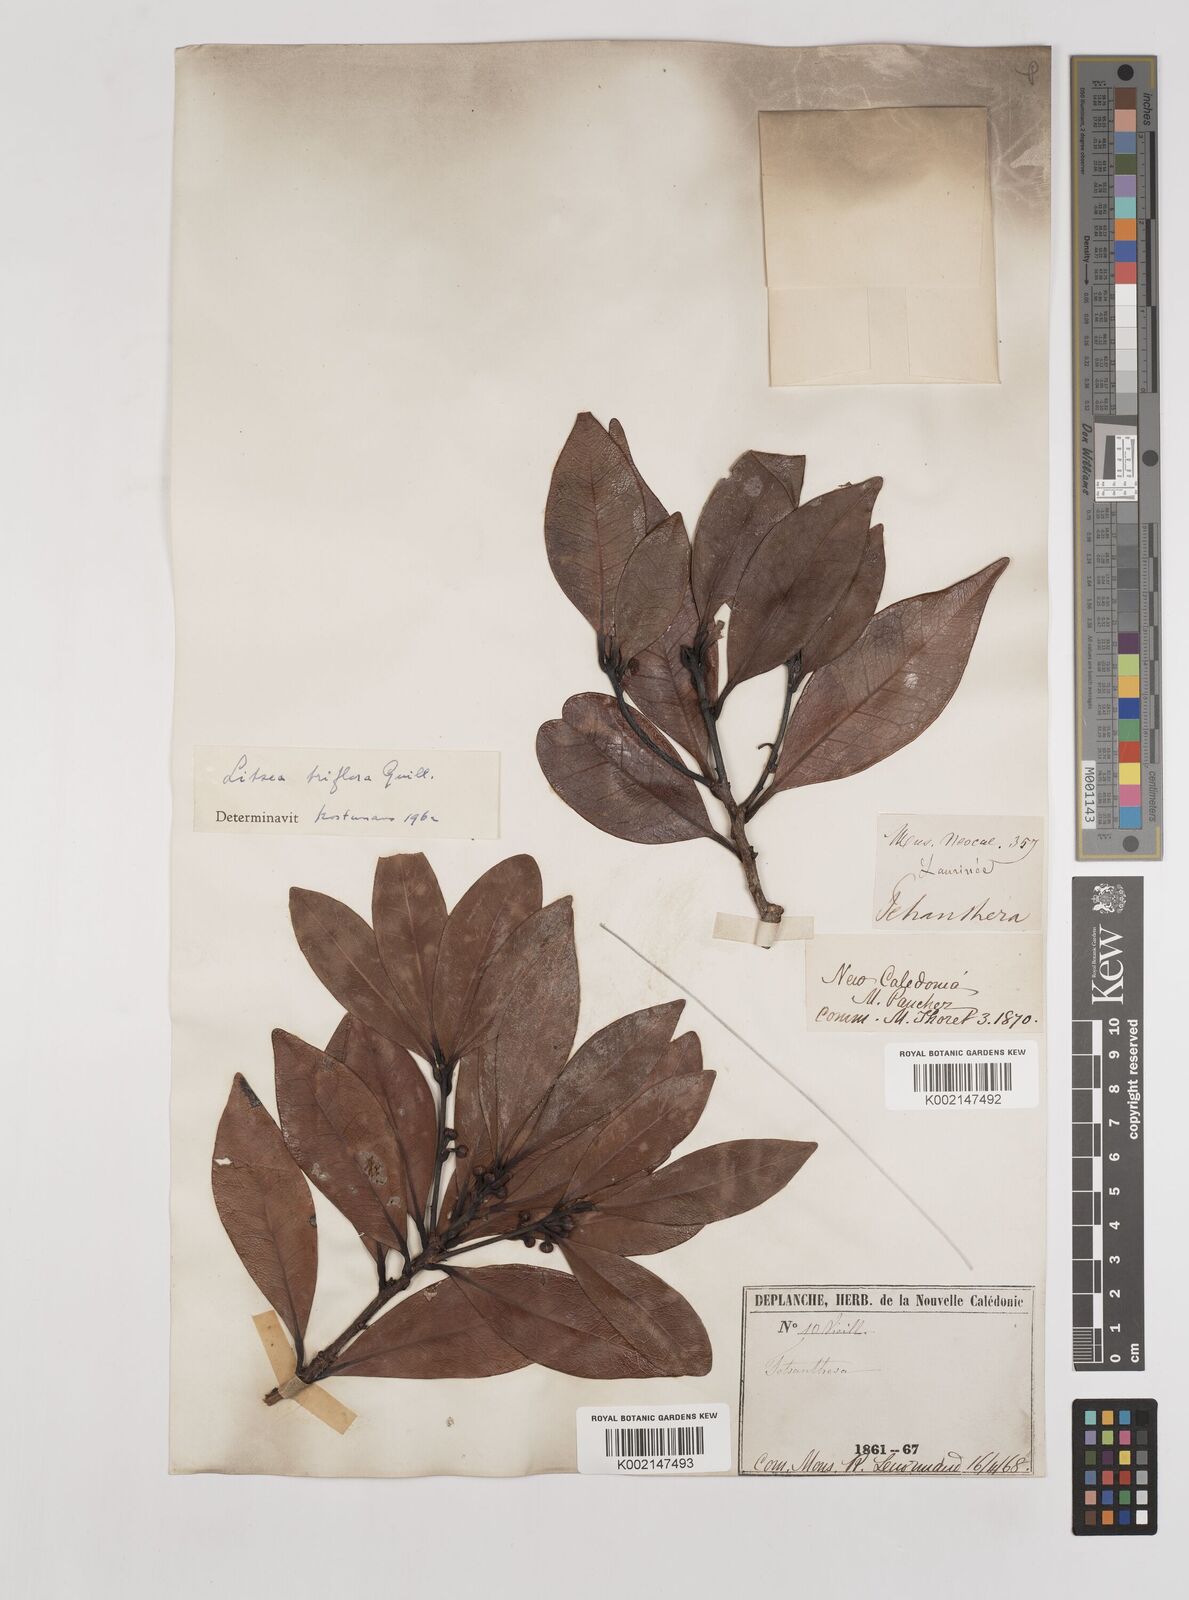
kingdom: Plantae
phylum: Tracheophyta
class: Magnoliopsida
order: Laurales
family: Lauraceae
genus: Litsea
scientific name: Litsea triflora
